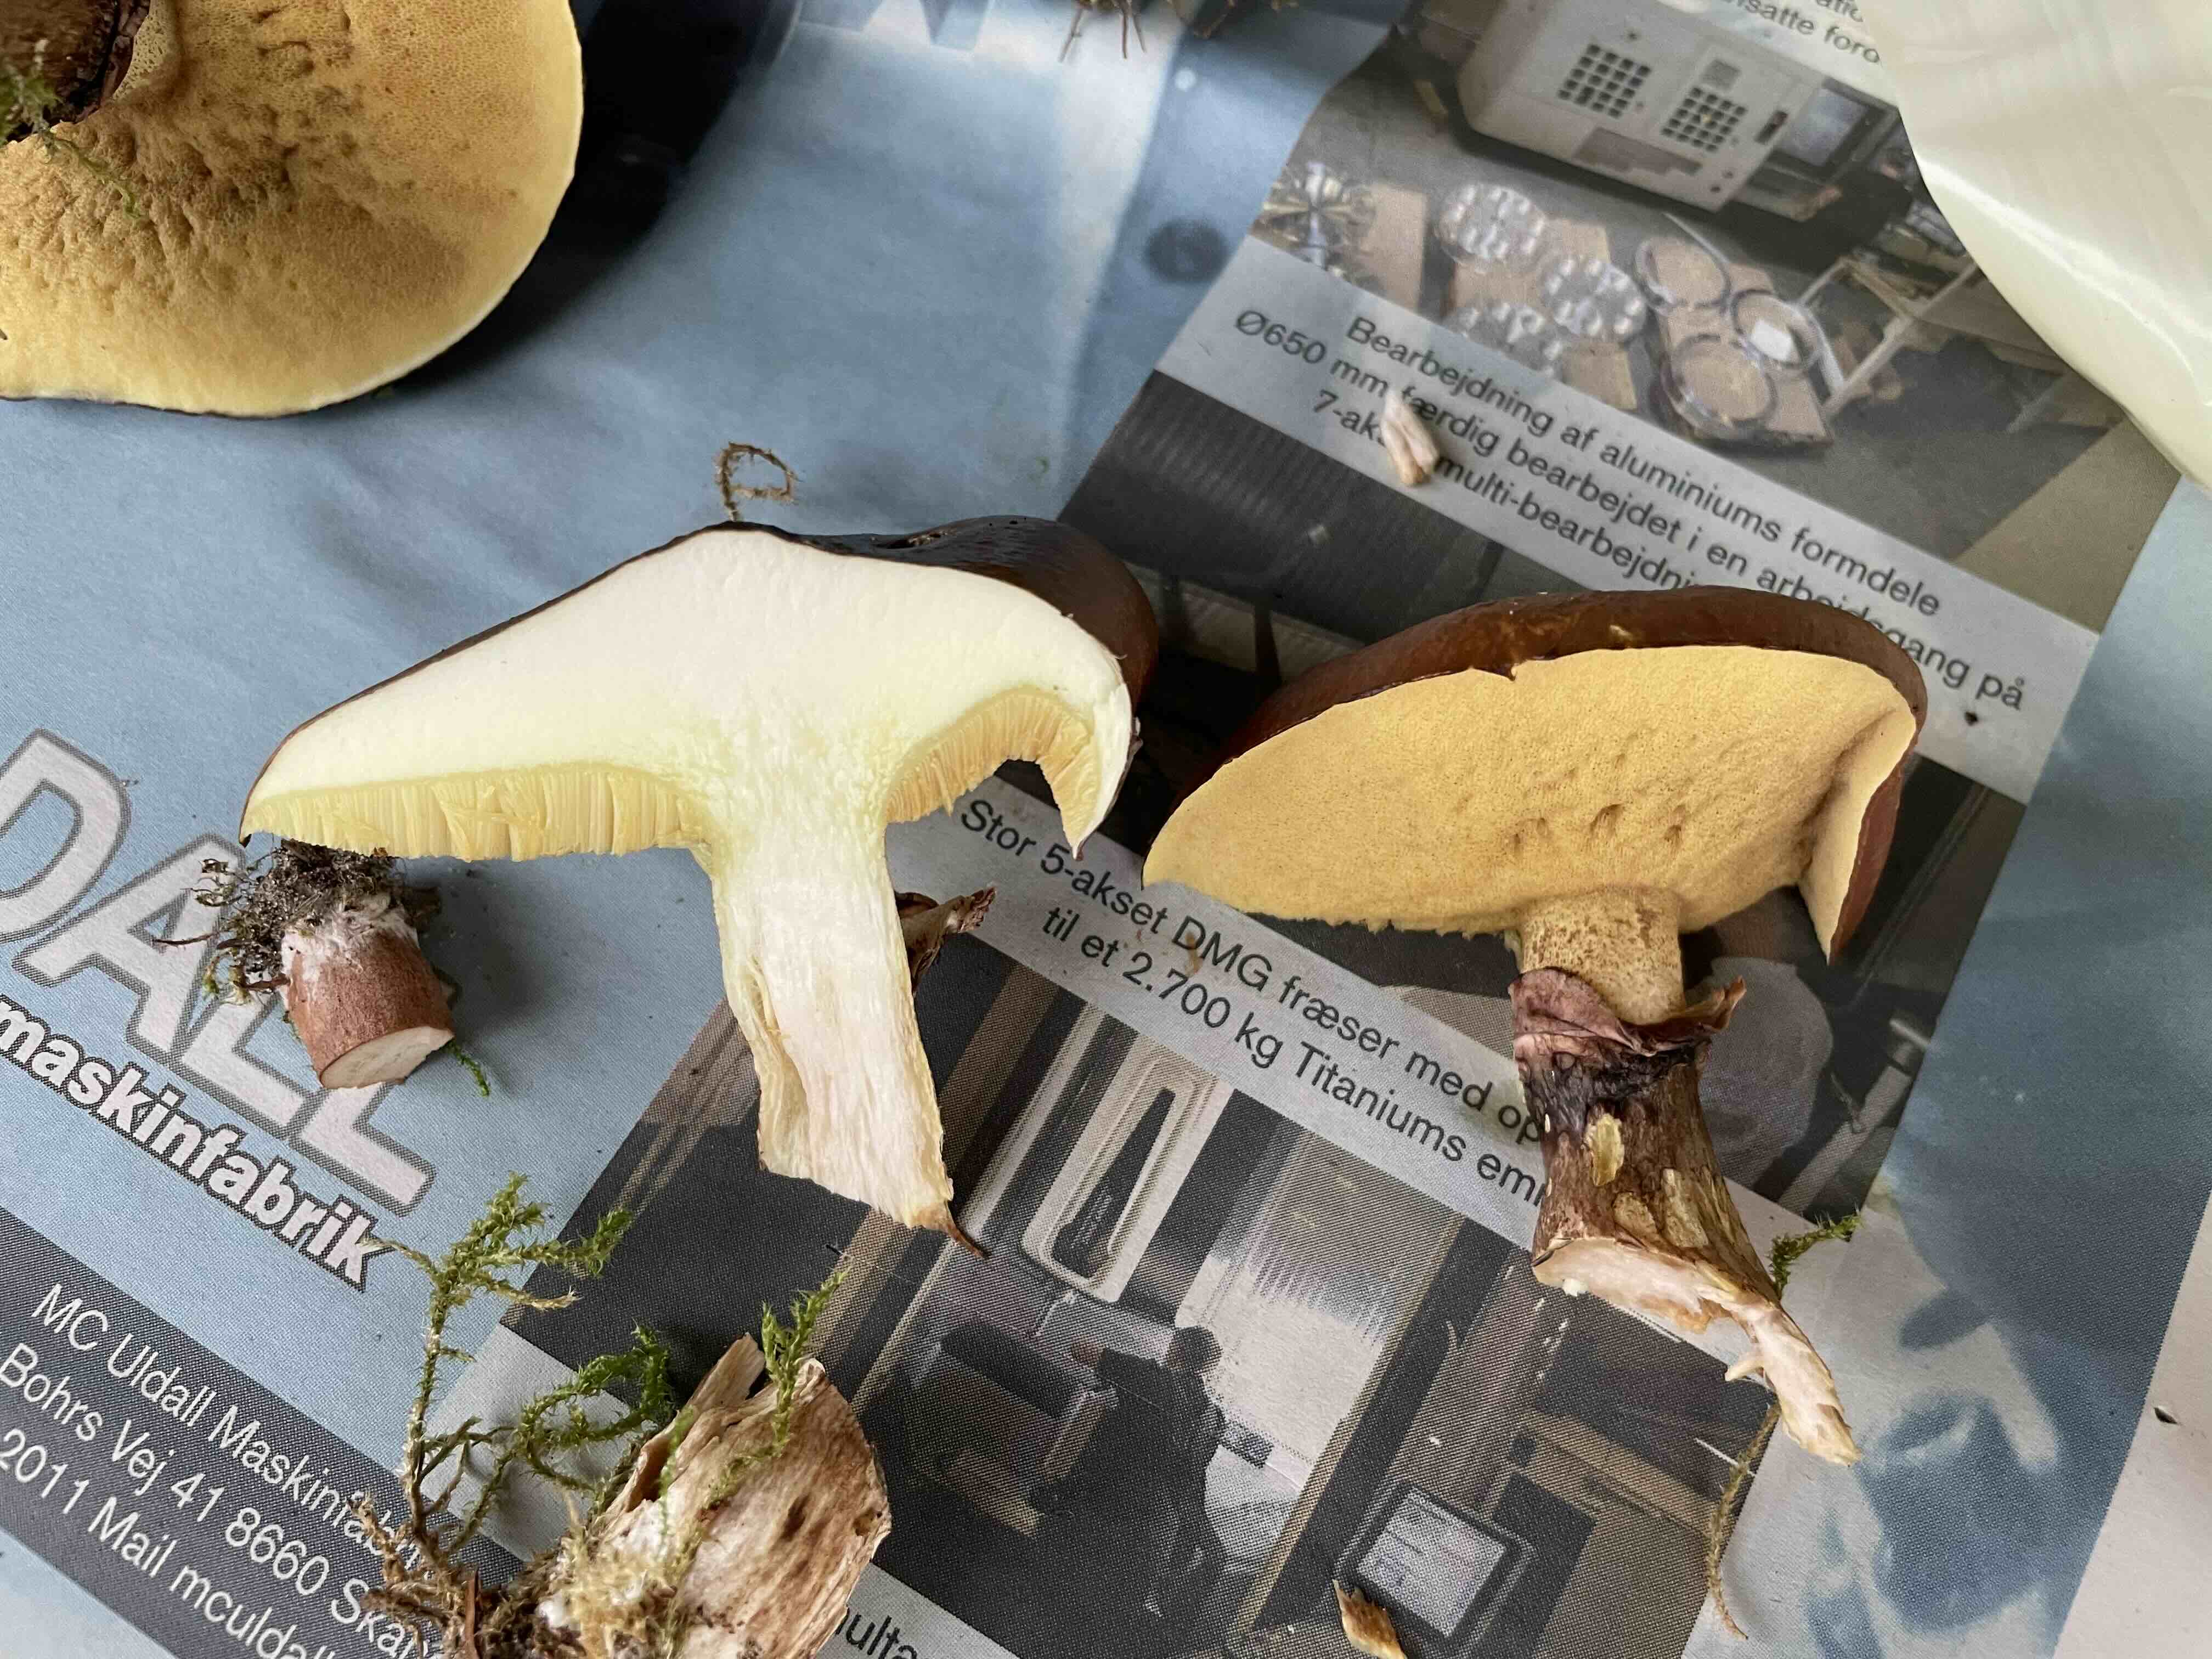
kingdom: Fungi
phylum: Basidiomycota
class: Agaricomycetes
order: Boletales
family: Suillaceae
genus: Suillus
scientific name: Suillus luteus
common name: brungul slimrørhat
